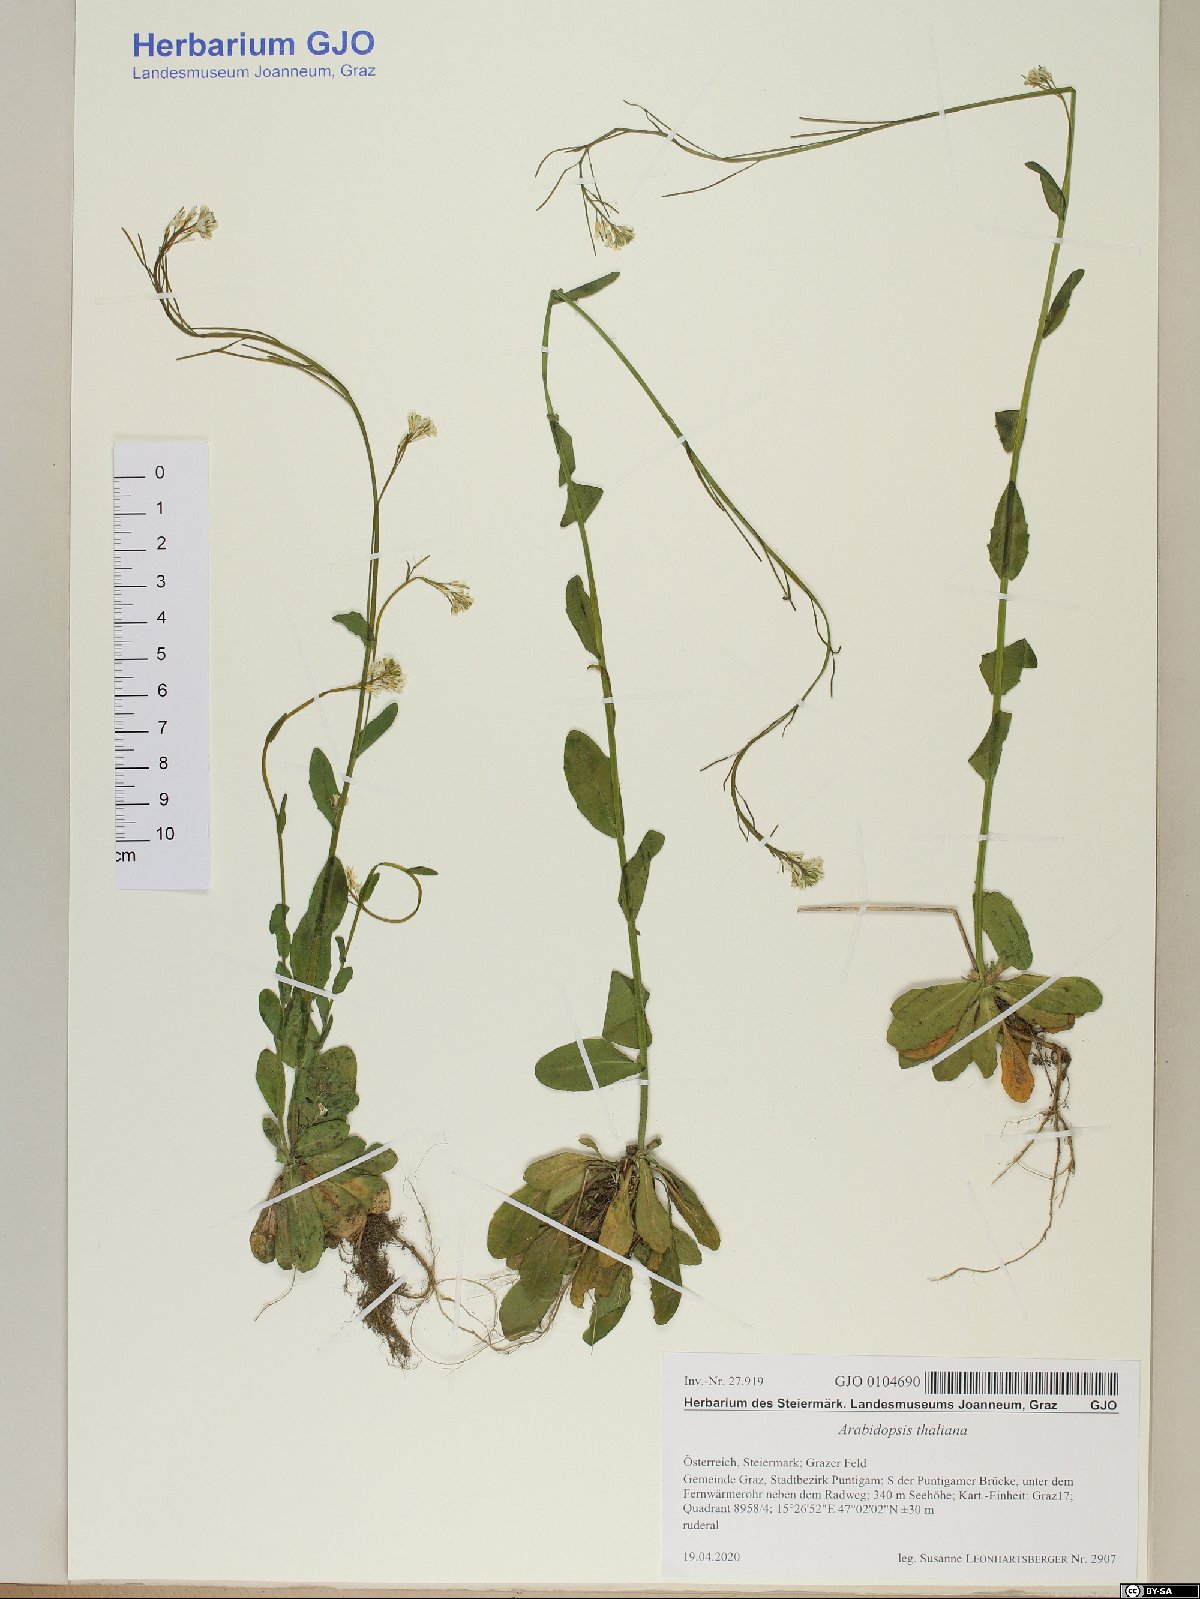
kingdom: Plantae
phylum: Tracheophyta
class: Magnoliopsida
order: Brassicales
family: Brassicaceae
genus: Arabidopsis
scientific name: Arabidopsis thaliana
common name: Thale cress
